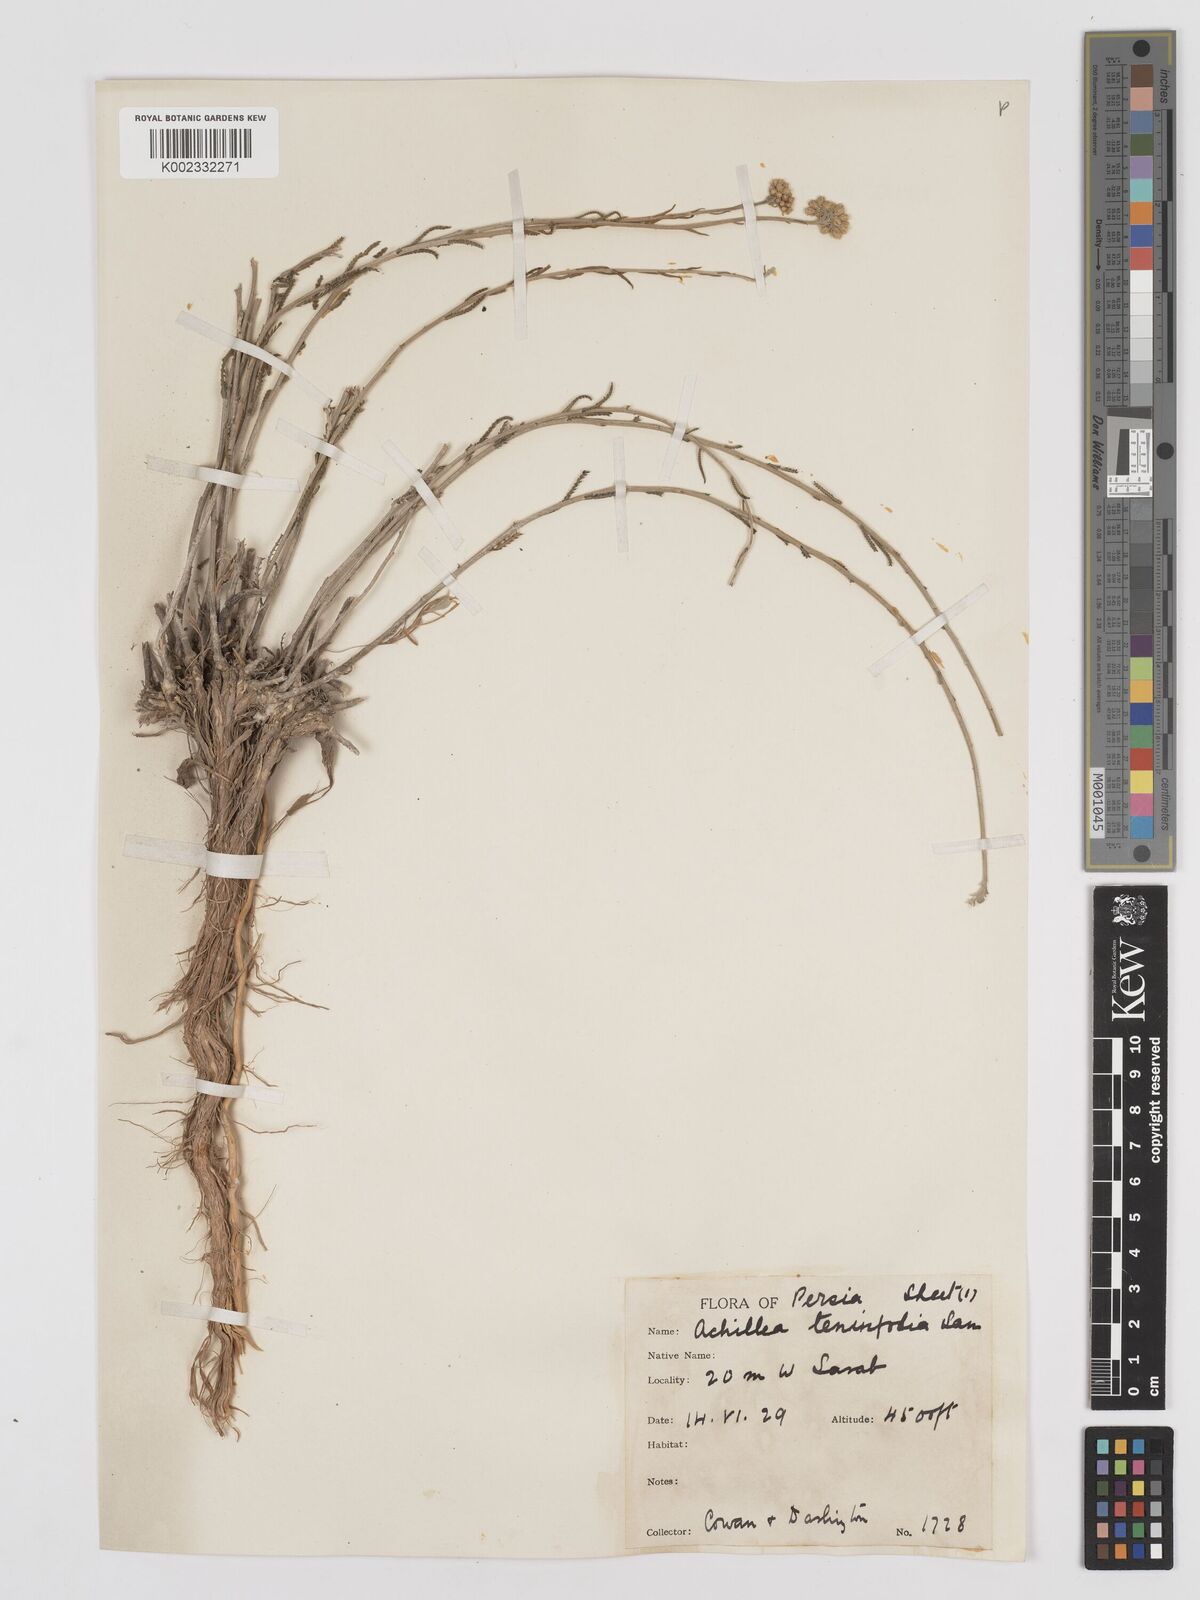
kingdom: Plantae
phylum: Tracheophyta
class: Magnoliopsida
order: Asterales
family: Asteraceae
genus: Achillea
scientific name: Achillea tenuifolia
